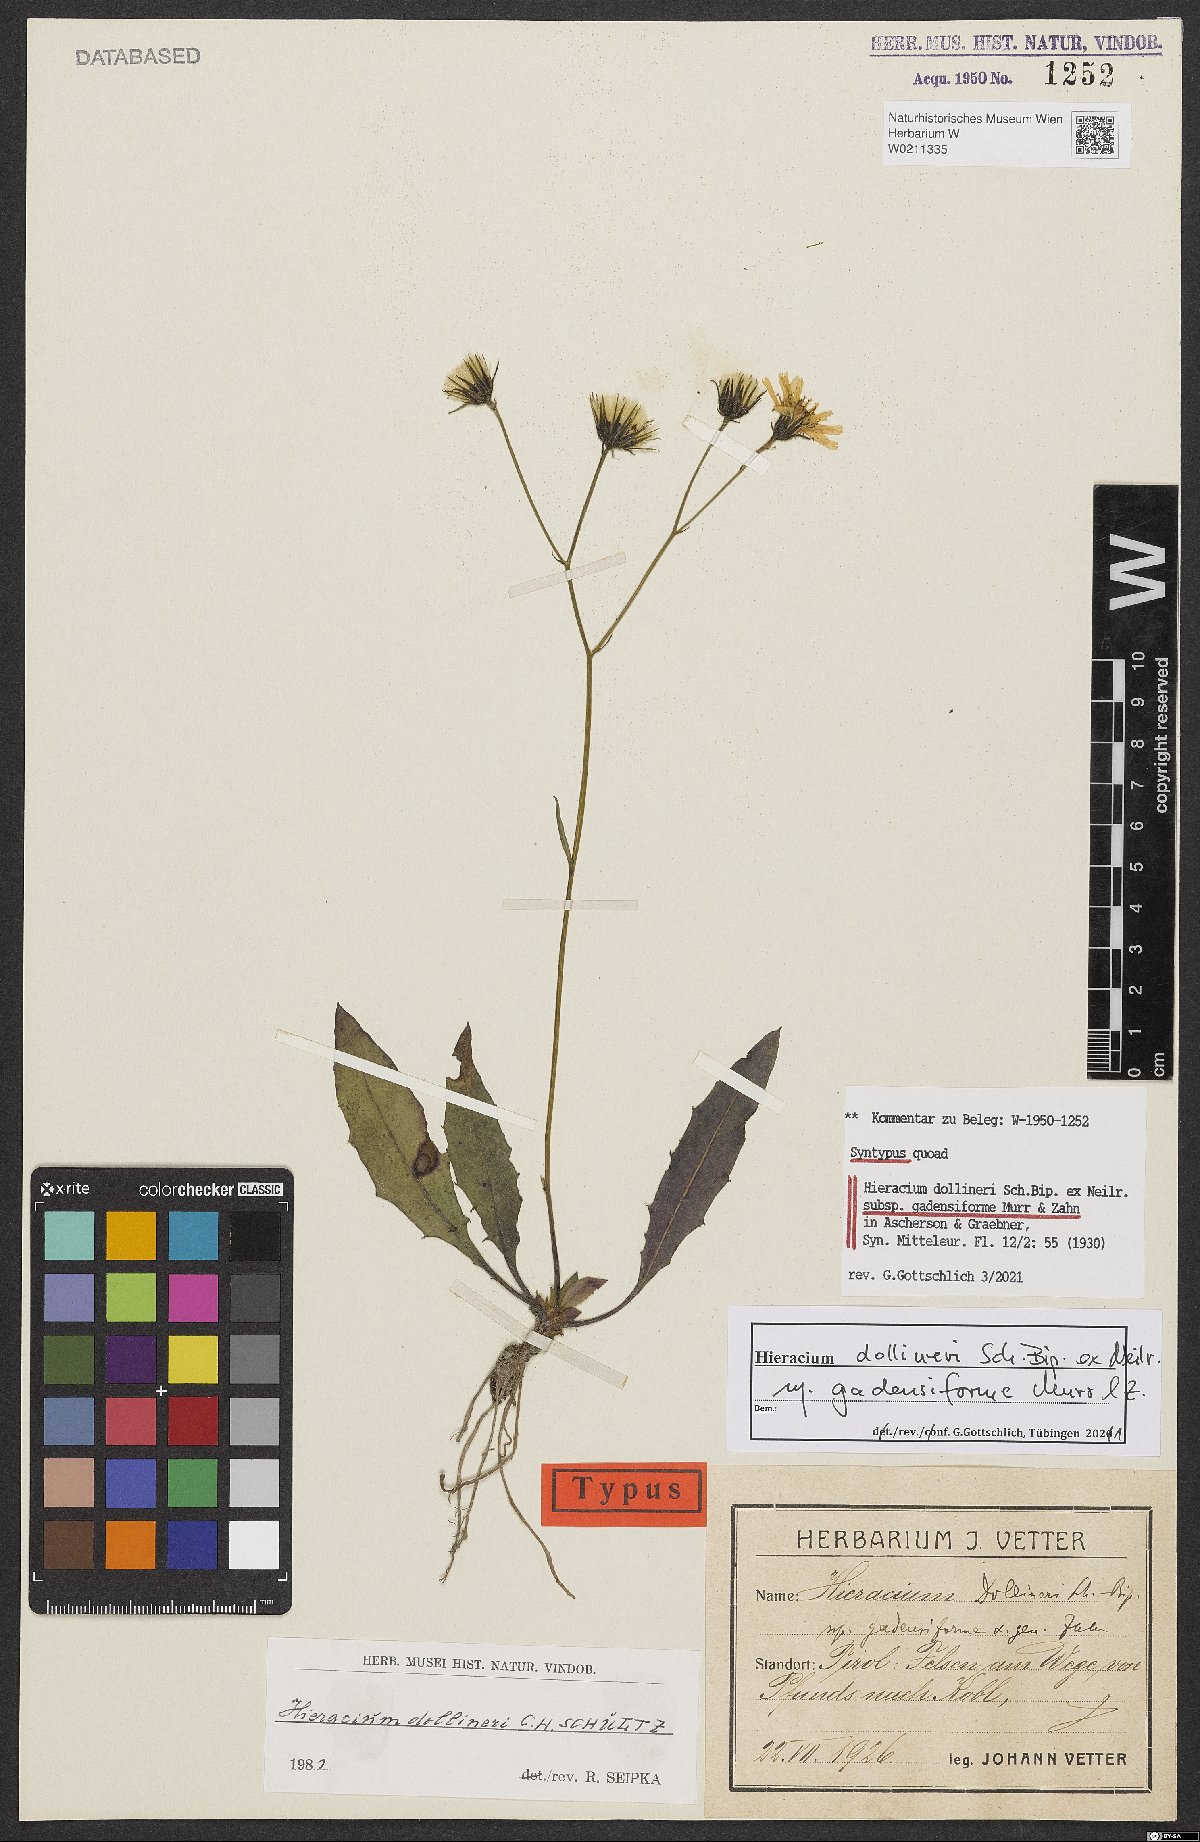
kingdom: Plantae
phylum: Tracheophyta
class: Magnoliopsida
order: Asterales
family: Asteraceae
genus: Hieracium
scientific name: Hieracium dollineri
